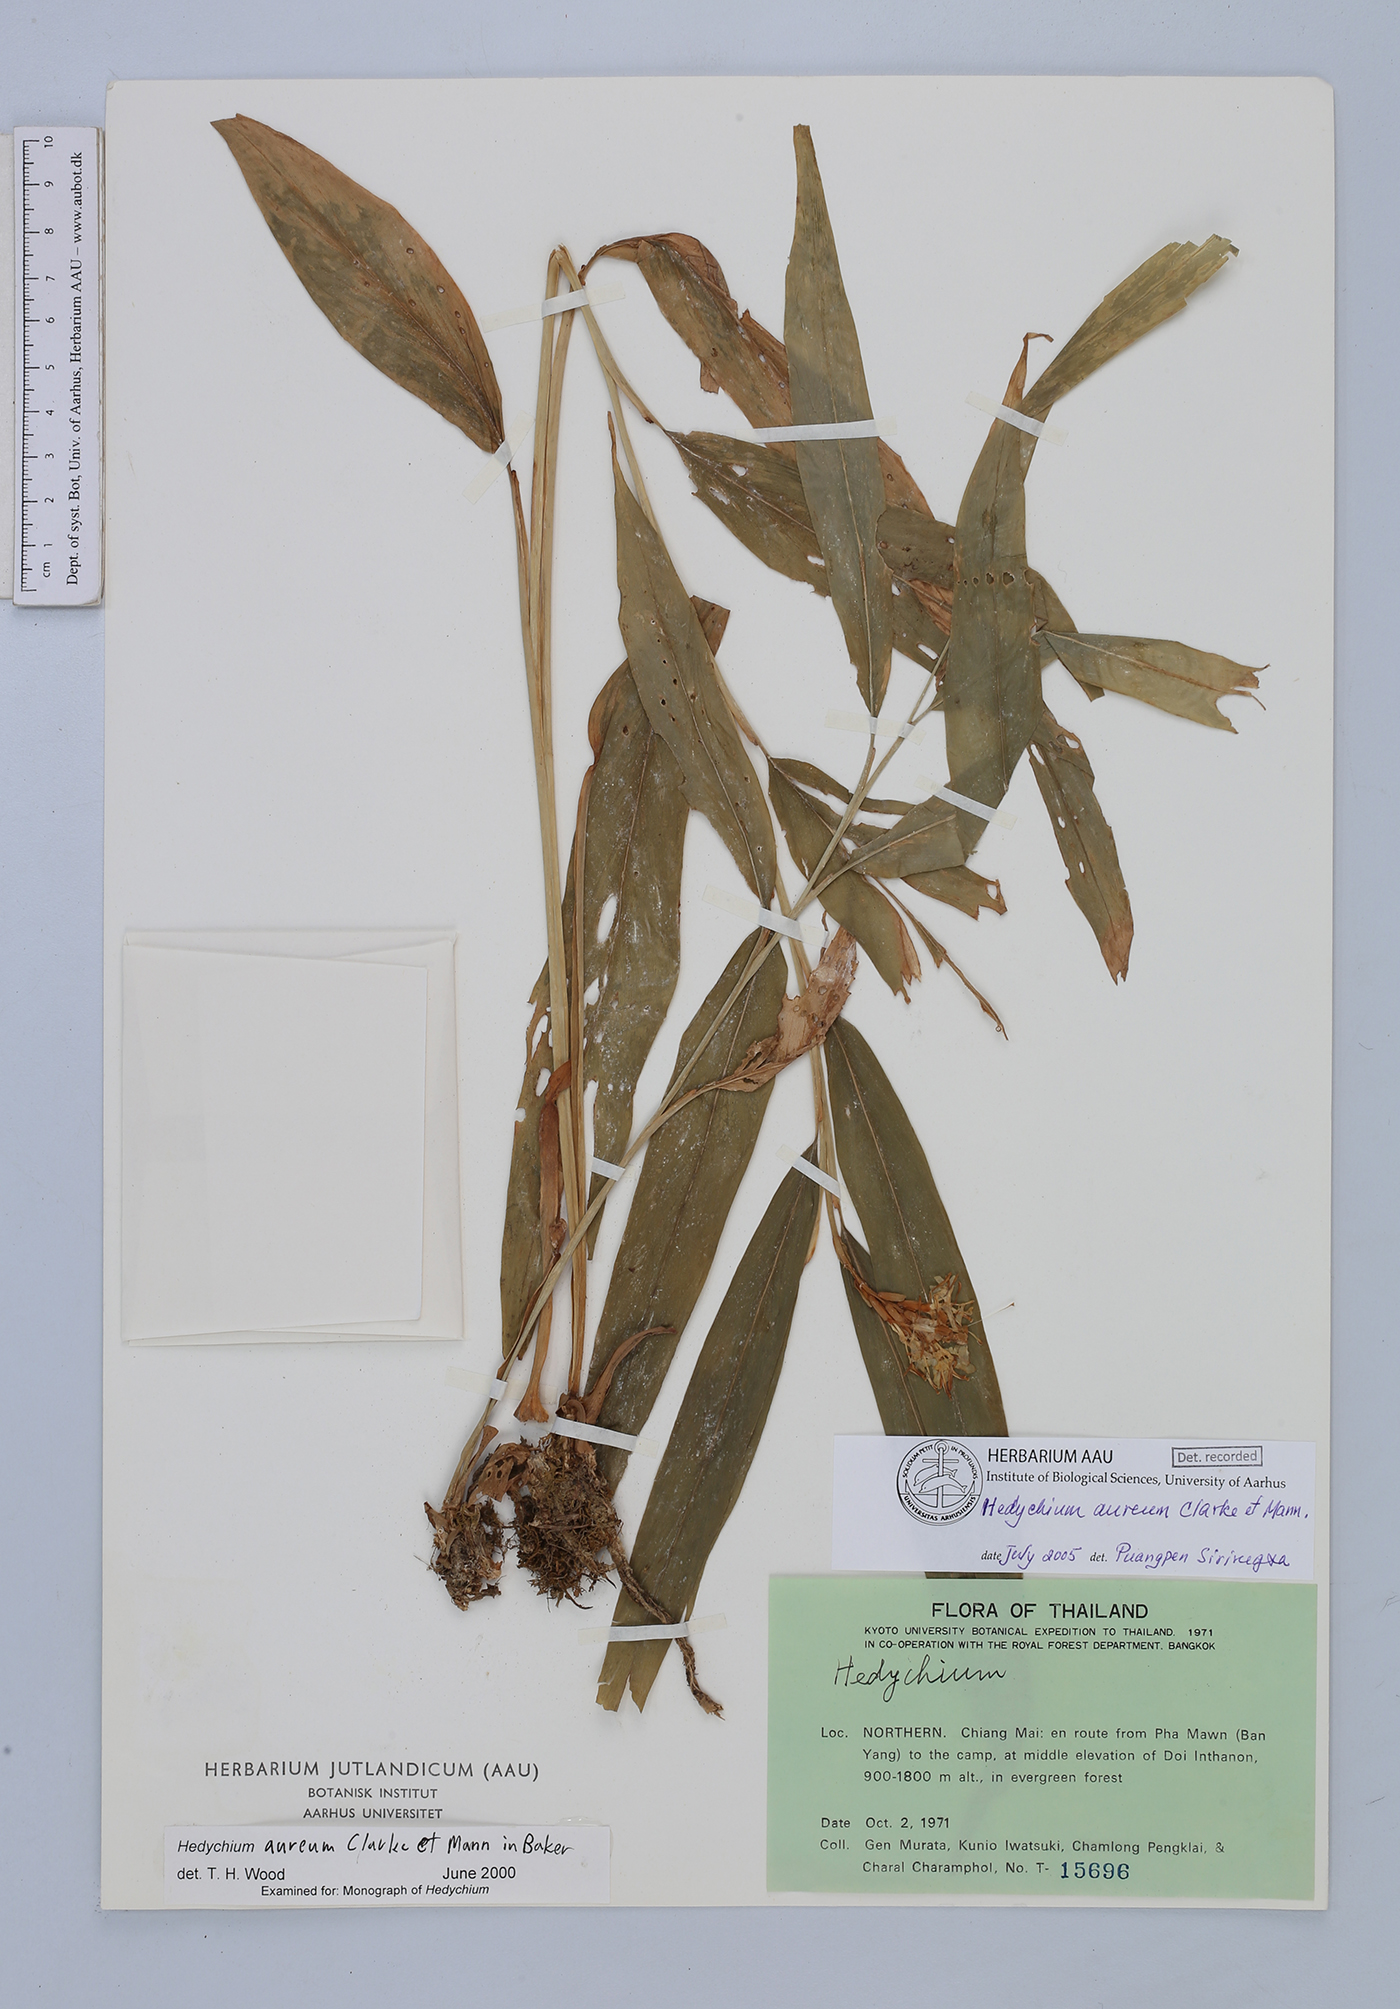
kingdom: Plantae
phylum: Tracheophyta
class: Liliopsida
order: Zingiberales
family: Zingiberaceae
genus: Hedychium
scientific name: Hedychium aureum
